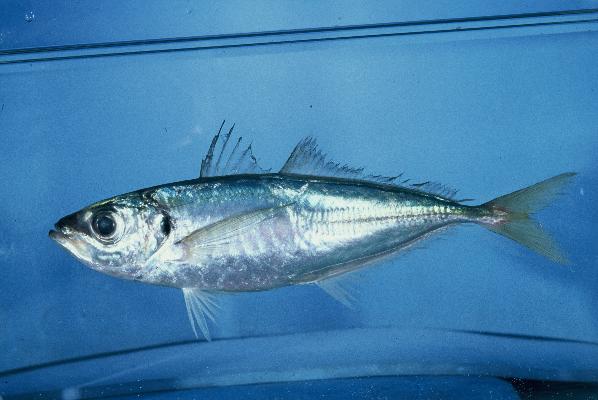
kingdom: Animalia
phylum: Chordata
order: Perciformes
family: Carangidae
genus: Trachurus
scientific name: Trachurus delagoa
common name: African scad
